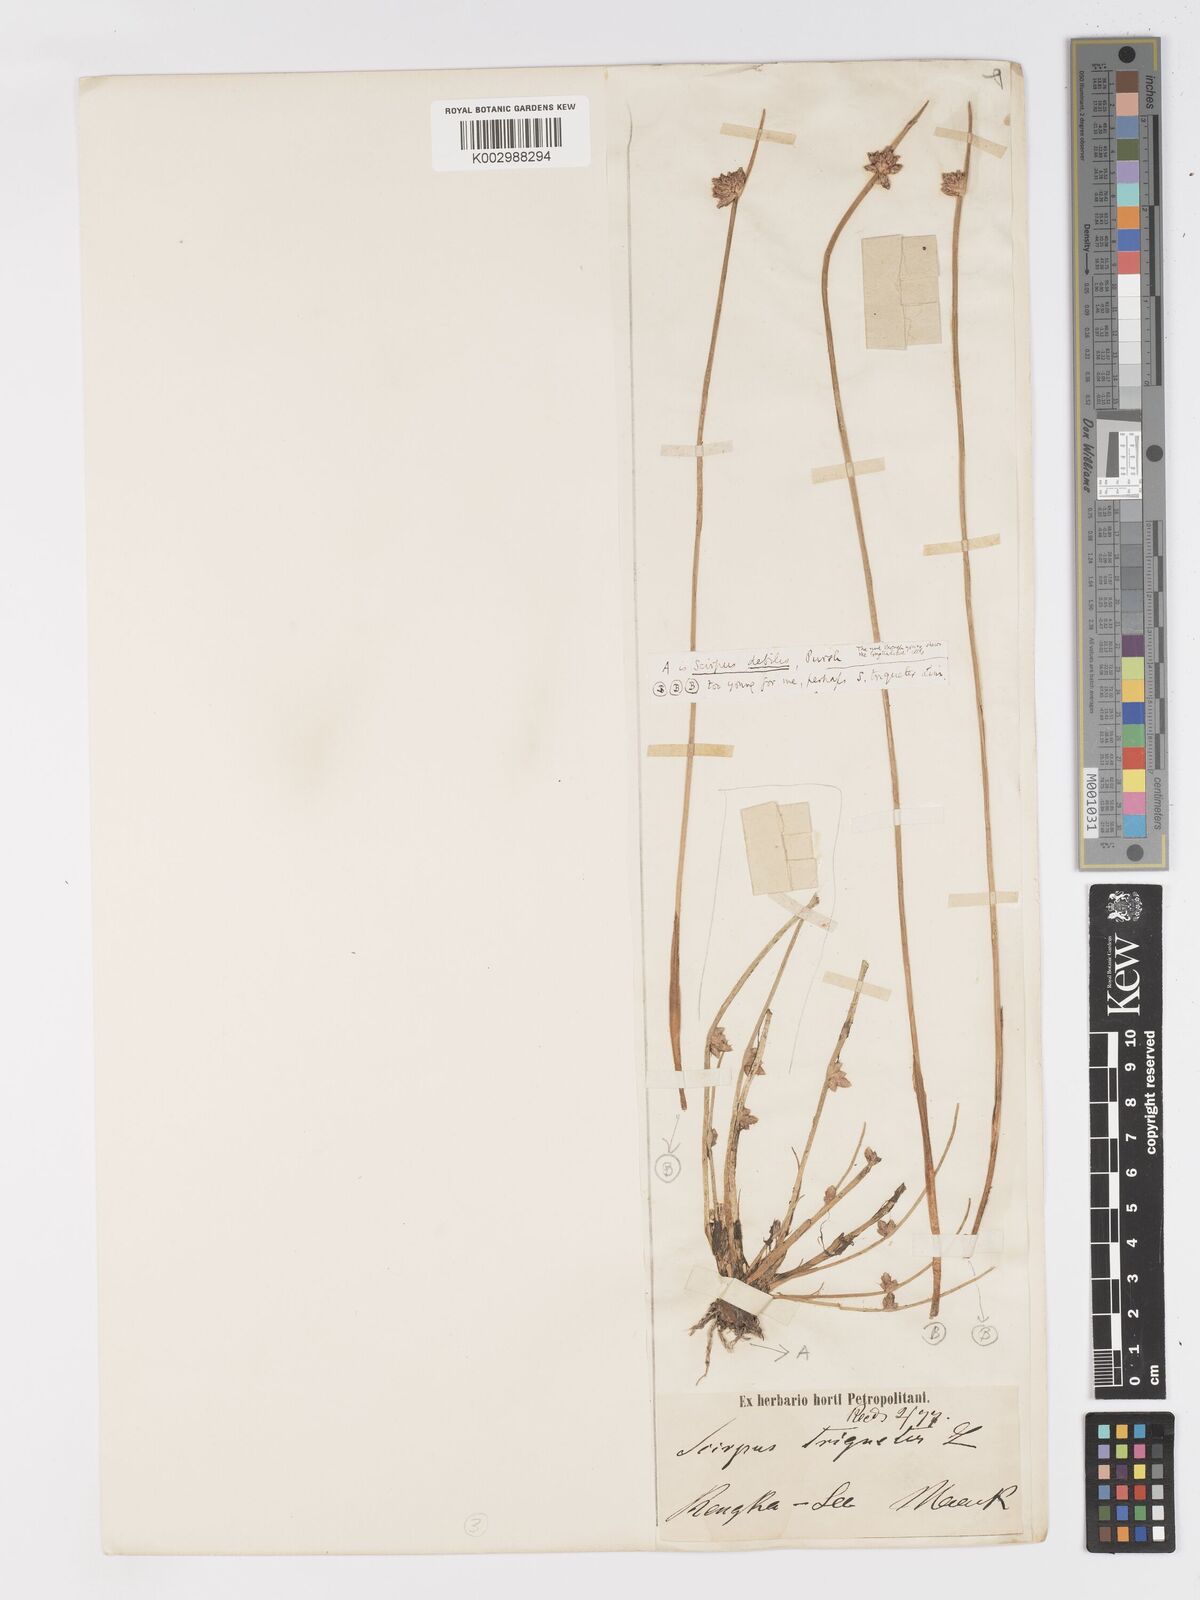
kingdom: Plantae
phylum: Tracheophyta
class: Liliopsida
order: Poales
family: Cyperaceae
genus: Schoenoplectiella
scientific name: Schoenoplectiella erecta
